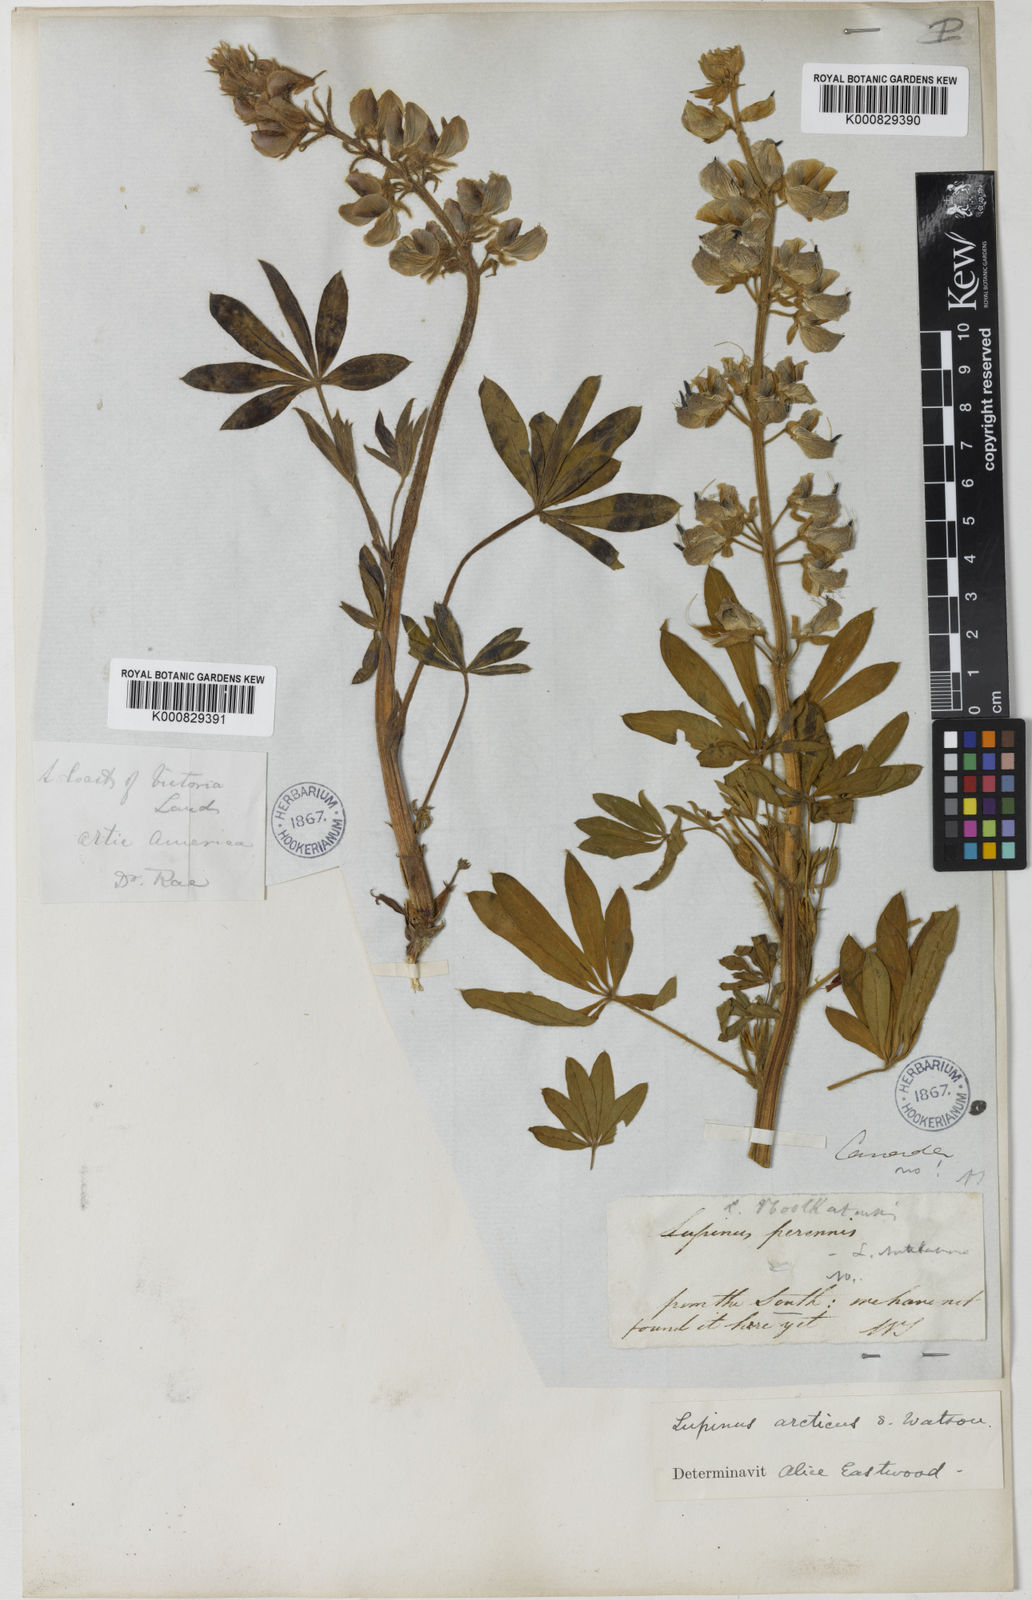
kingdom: Plantae
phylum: Tracheophyta
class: Magnoliopsida
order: Fabales
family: Fabaceae
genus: Lupinus
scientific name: Lupinus arcticus
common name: Arctic lupine
